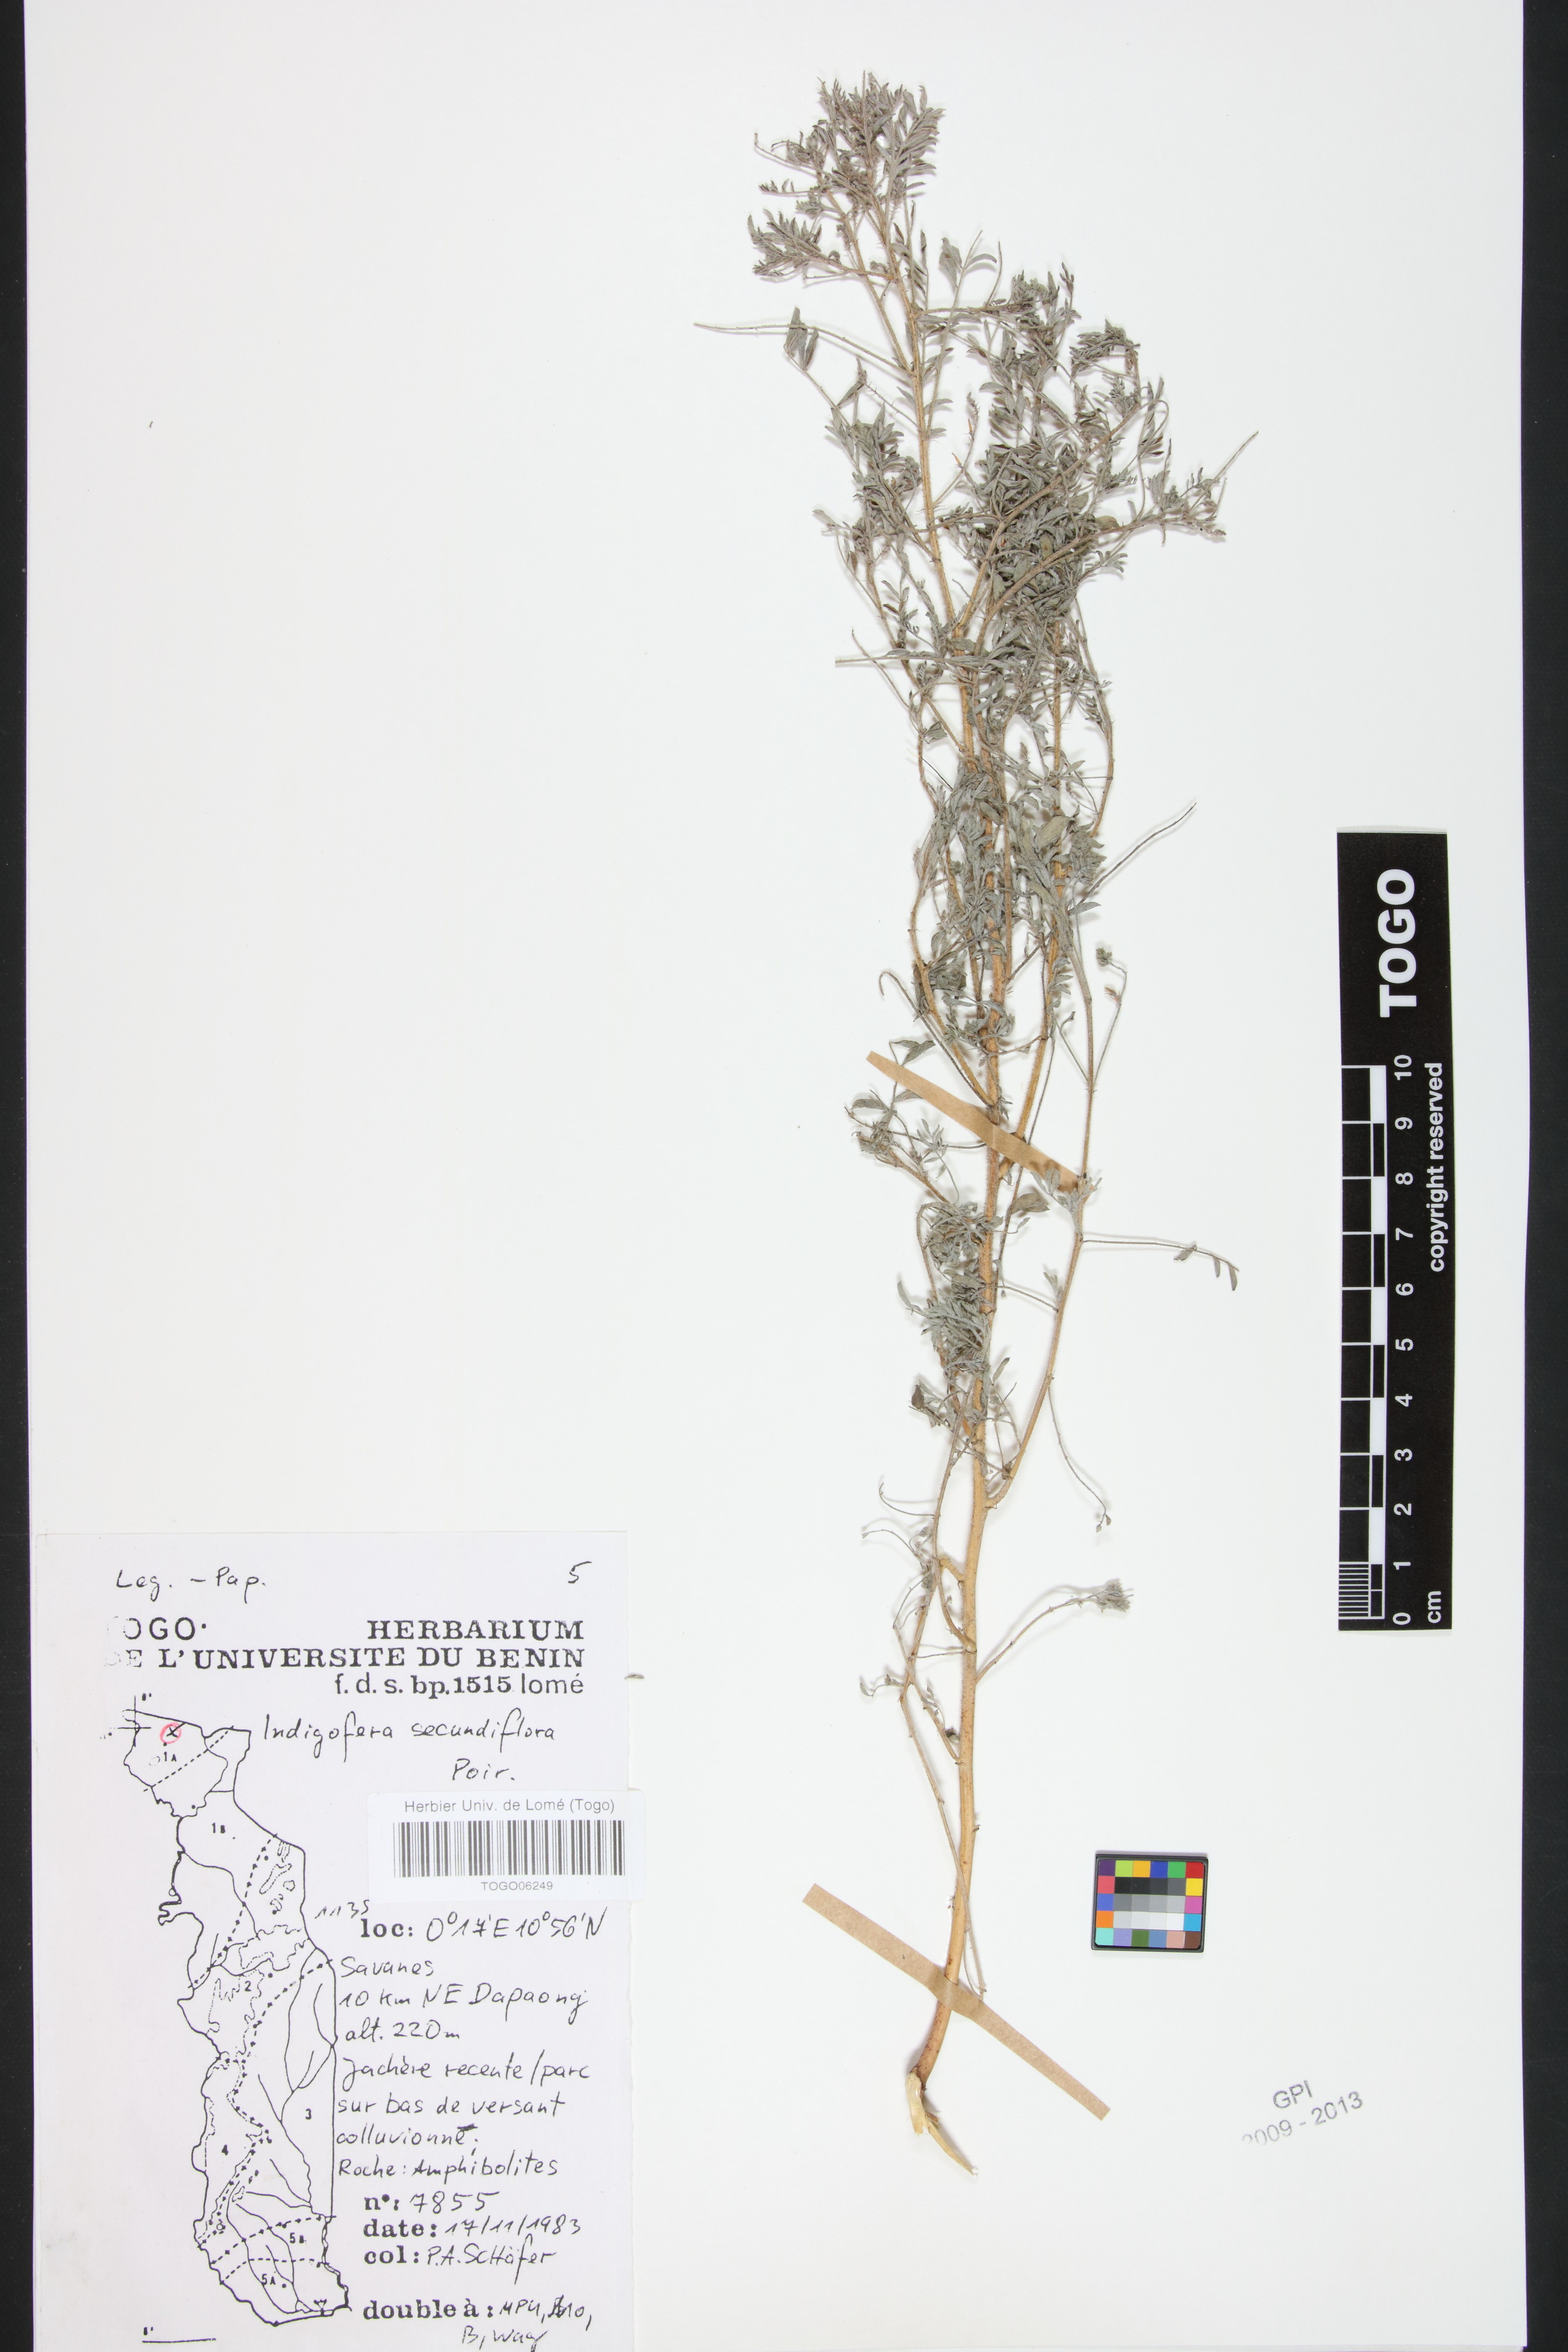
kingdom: Plantae
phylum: Tracheophyta
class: Magnoliopsida
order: Fabales
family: Fabaceae
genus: Indigofera
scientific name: Indigofera secundiflora
